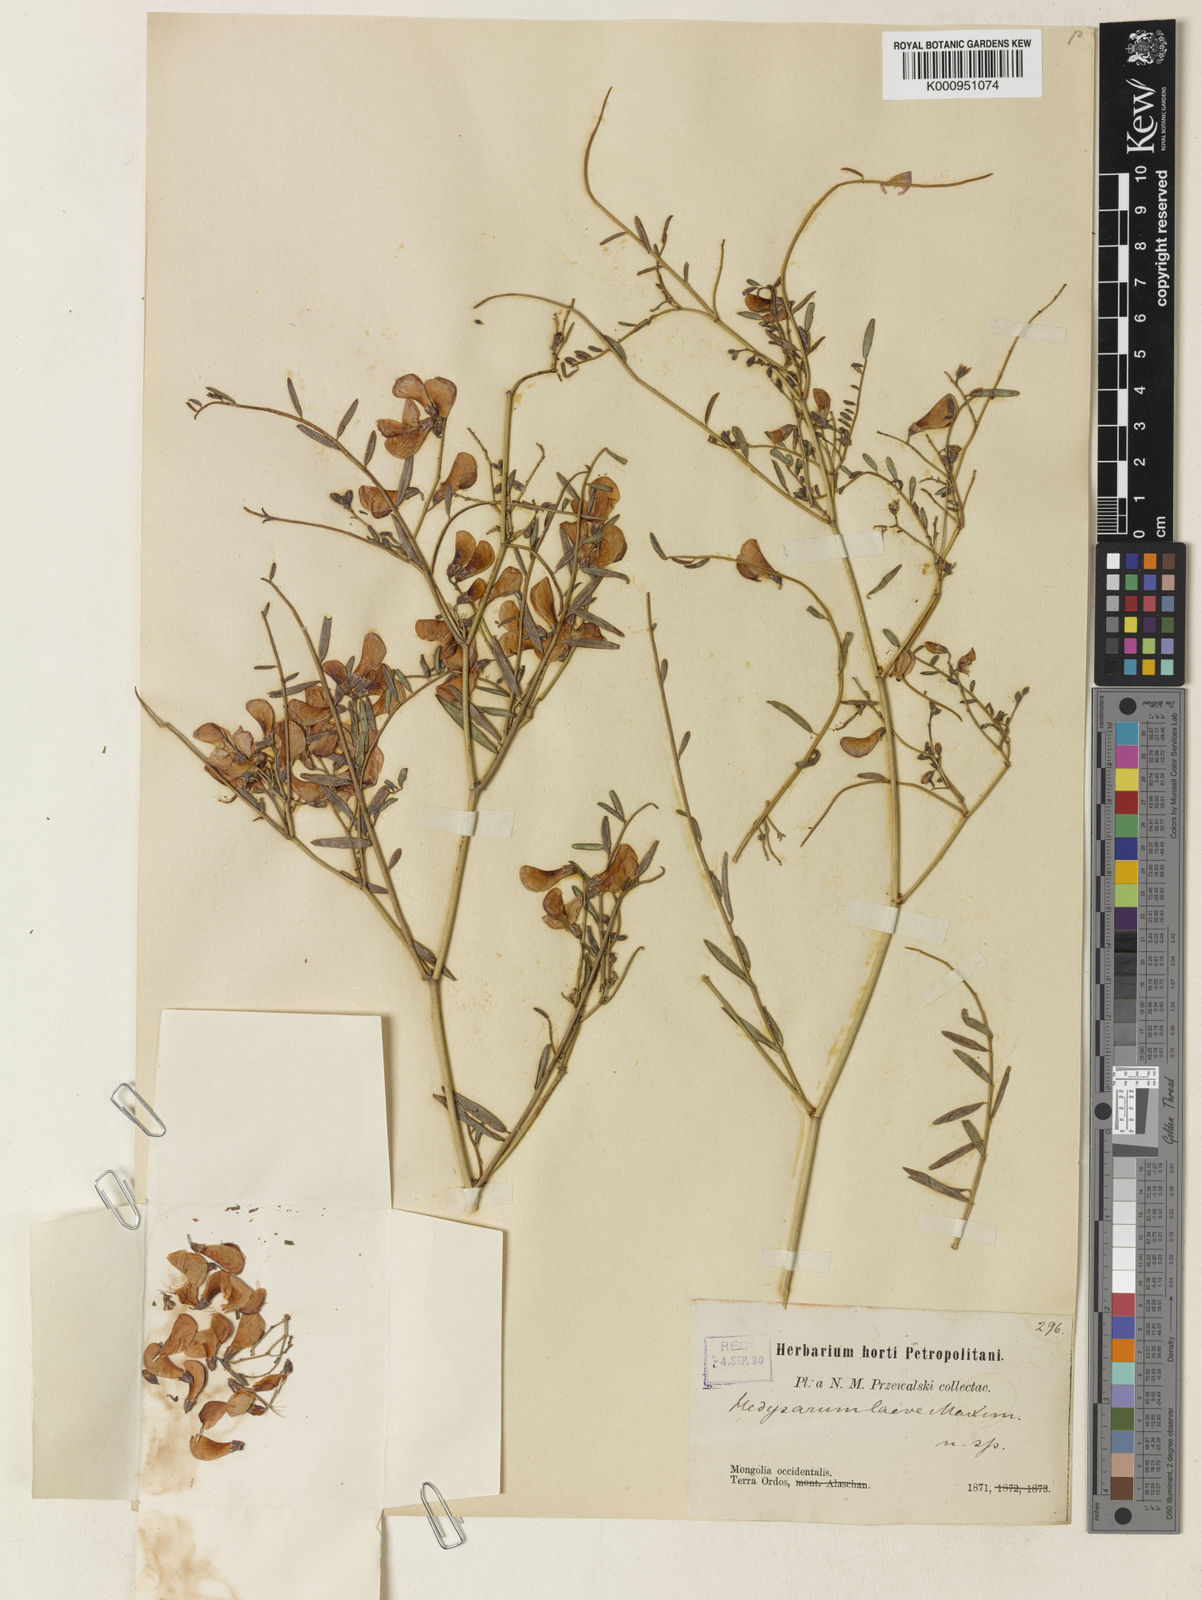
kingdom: Plantae
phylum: Tracheophyta
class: Magnoliopsida
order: Fabales
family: Fabaceae
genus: Hedysarum
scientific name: Hedysarum
